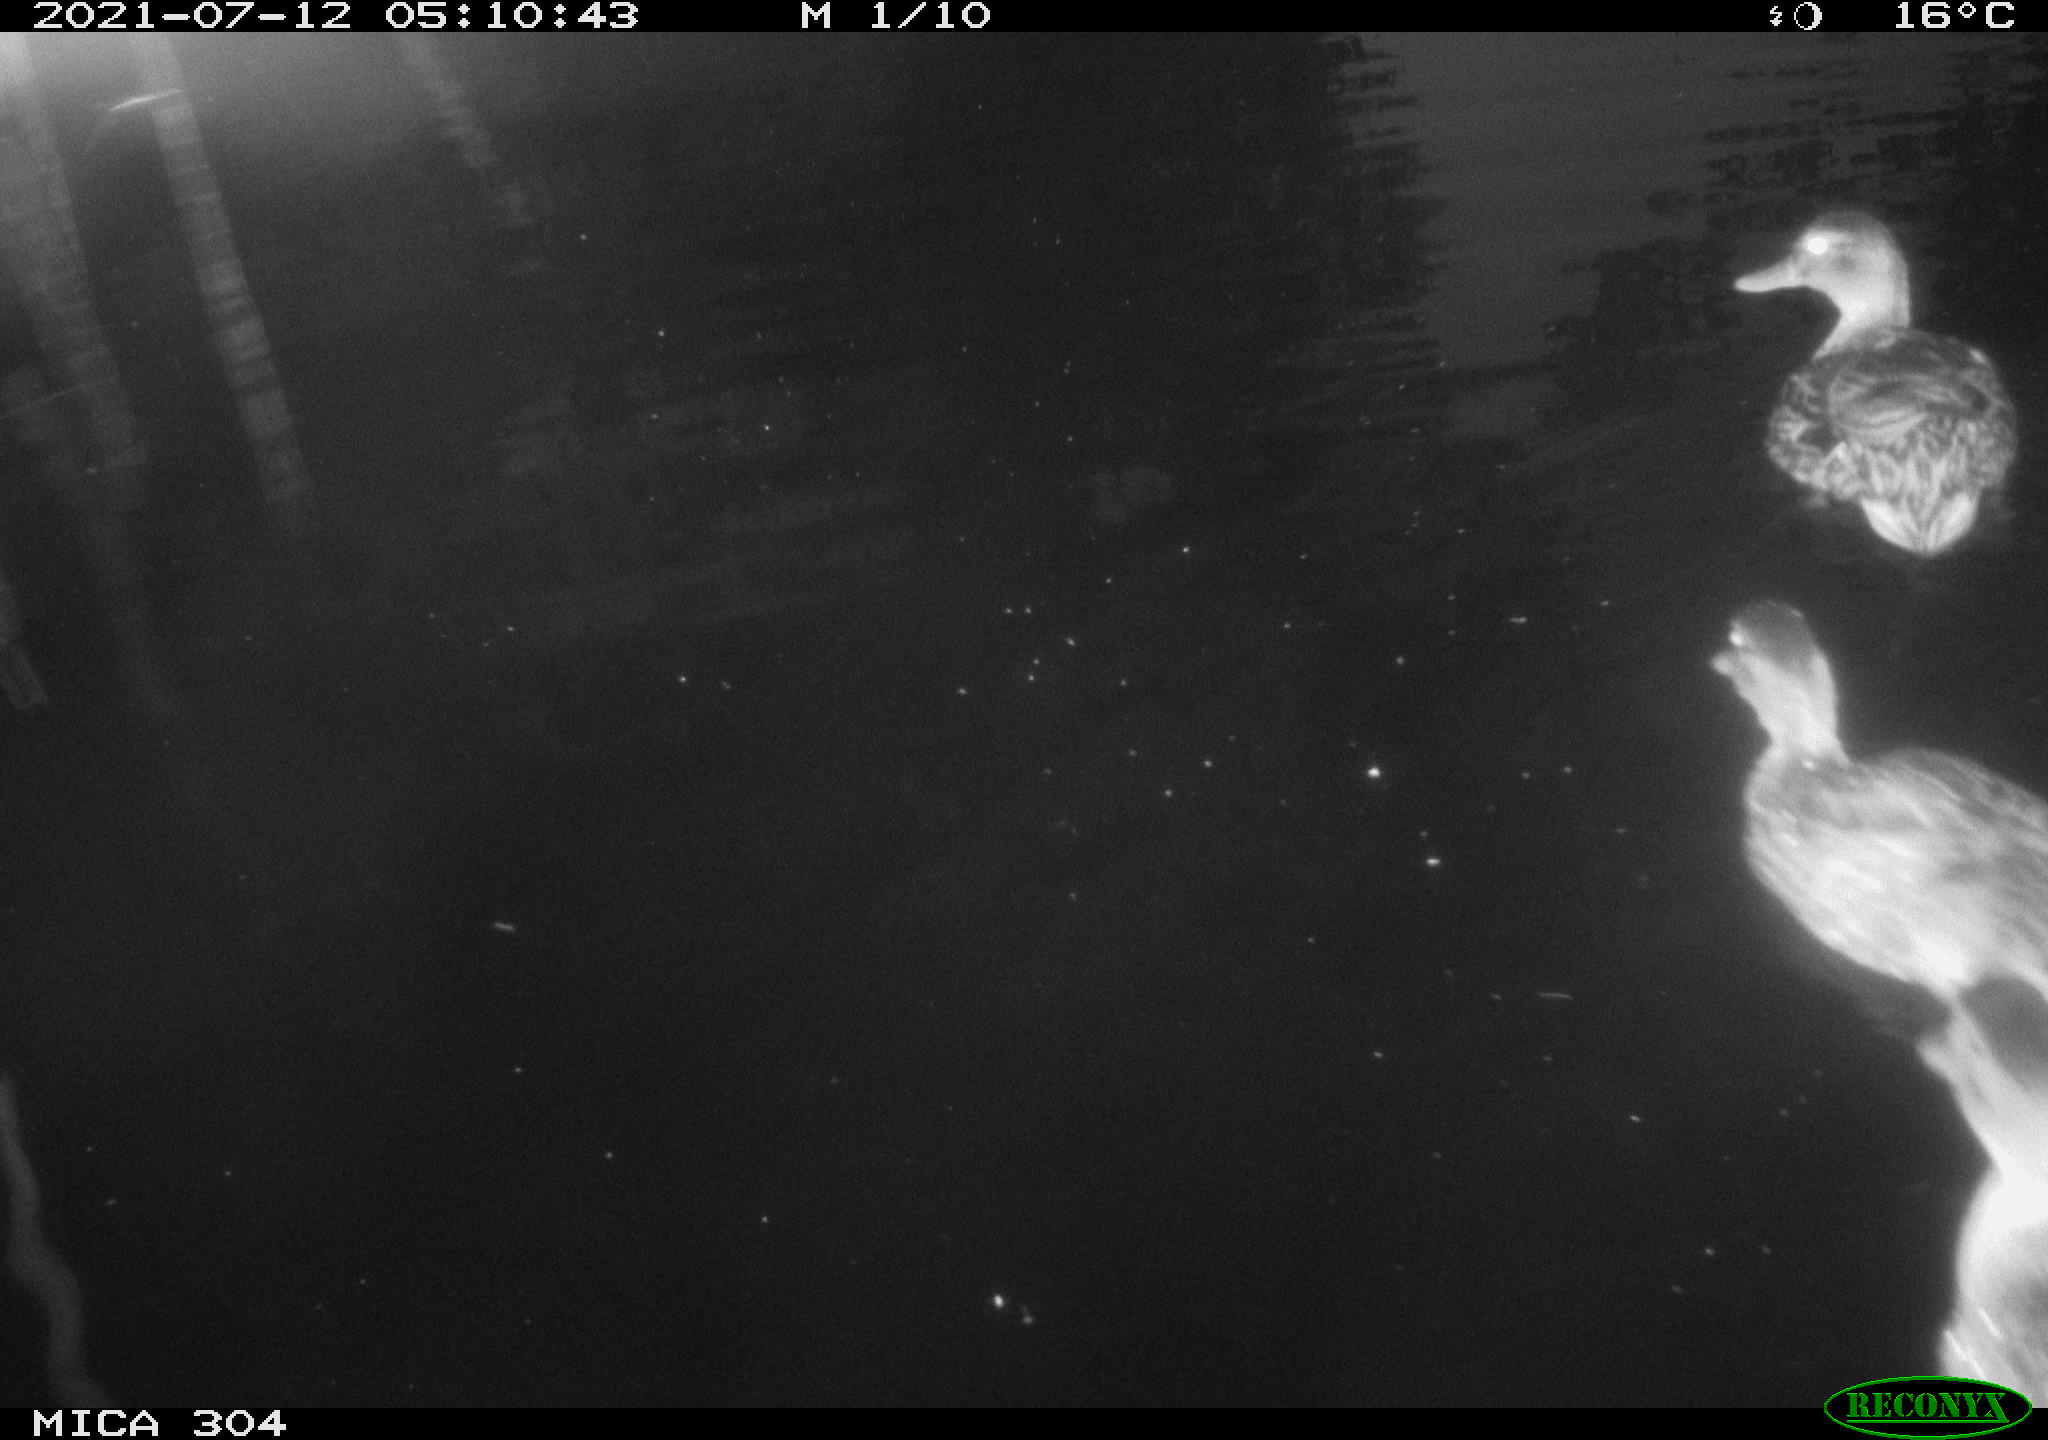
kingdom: Animalia
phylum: Chordata
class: Aves
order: Anseriformes
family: Anatidae
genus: Anas
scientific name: Anas platyrhynchos
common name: Mallard
